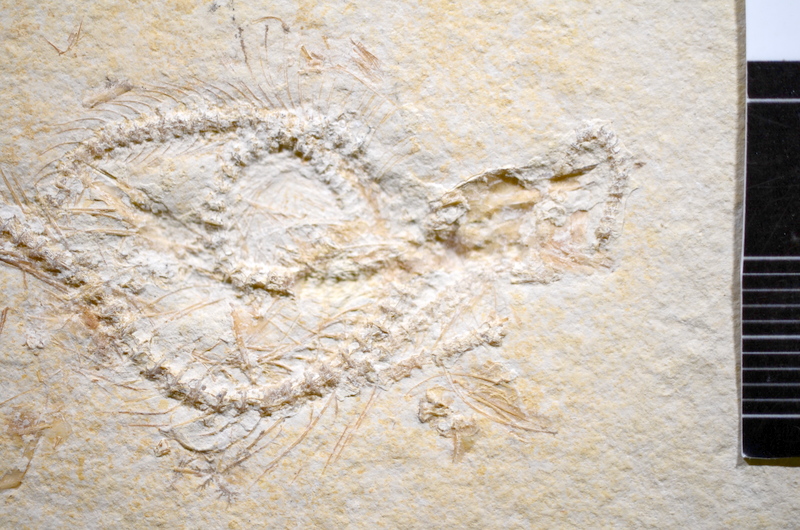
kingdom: Animalia
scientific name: Animalia
